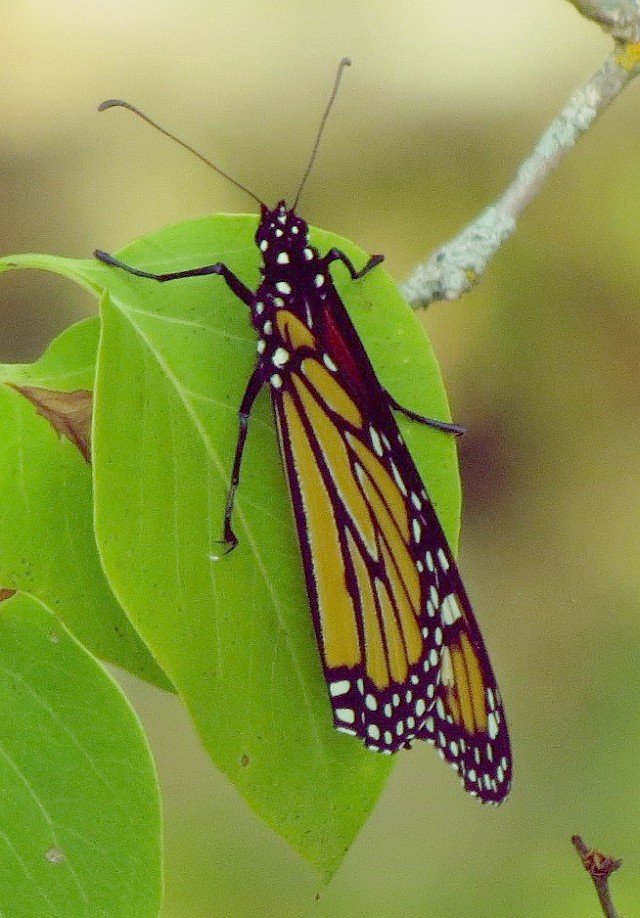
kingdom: Animalia
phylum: Arthropoda
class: Insecta
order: Lepidoptera
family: Nymphalidae
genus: Danaus
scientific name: Danaus plexippus
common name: Monarch
